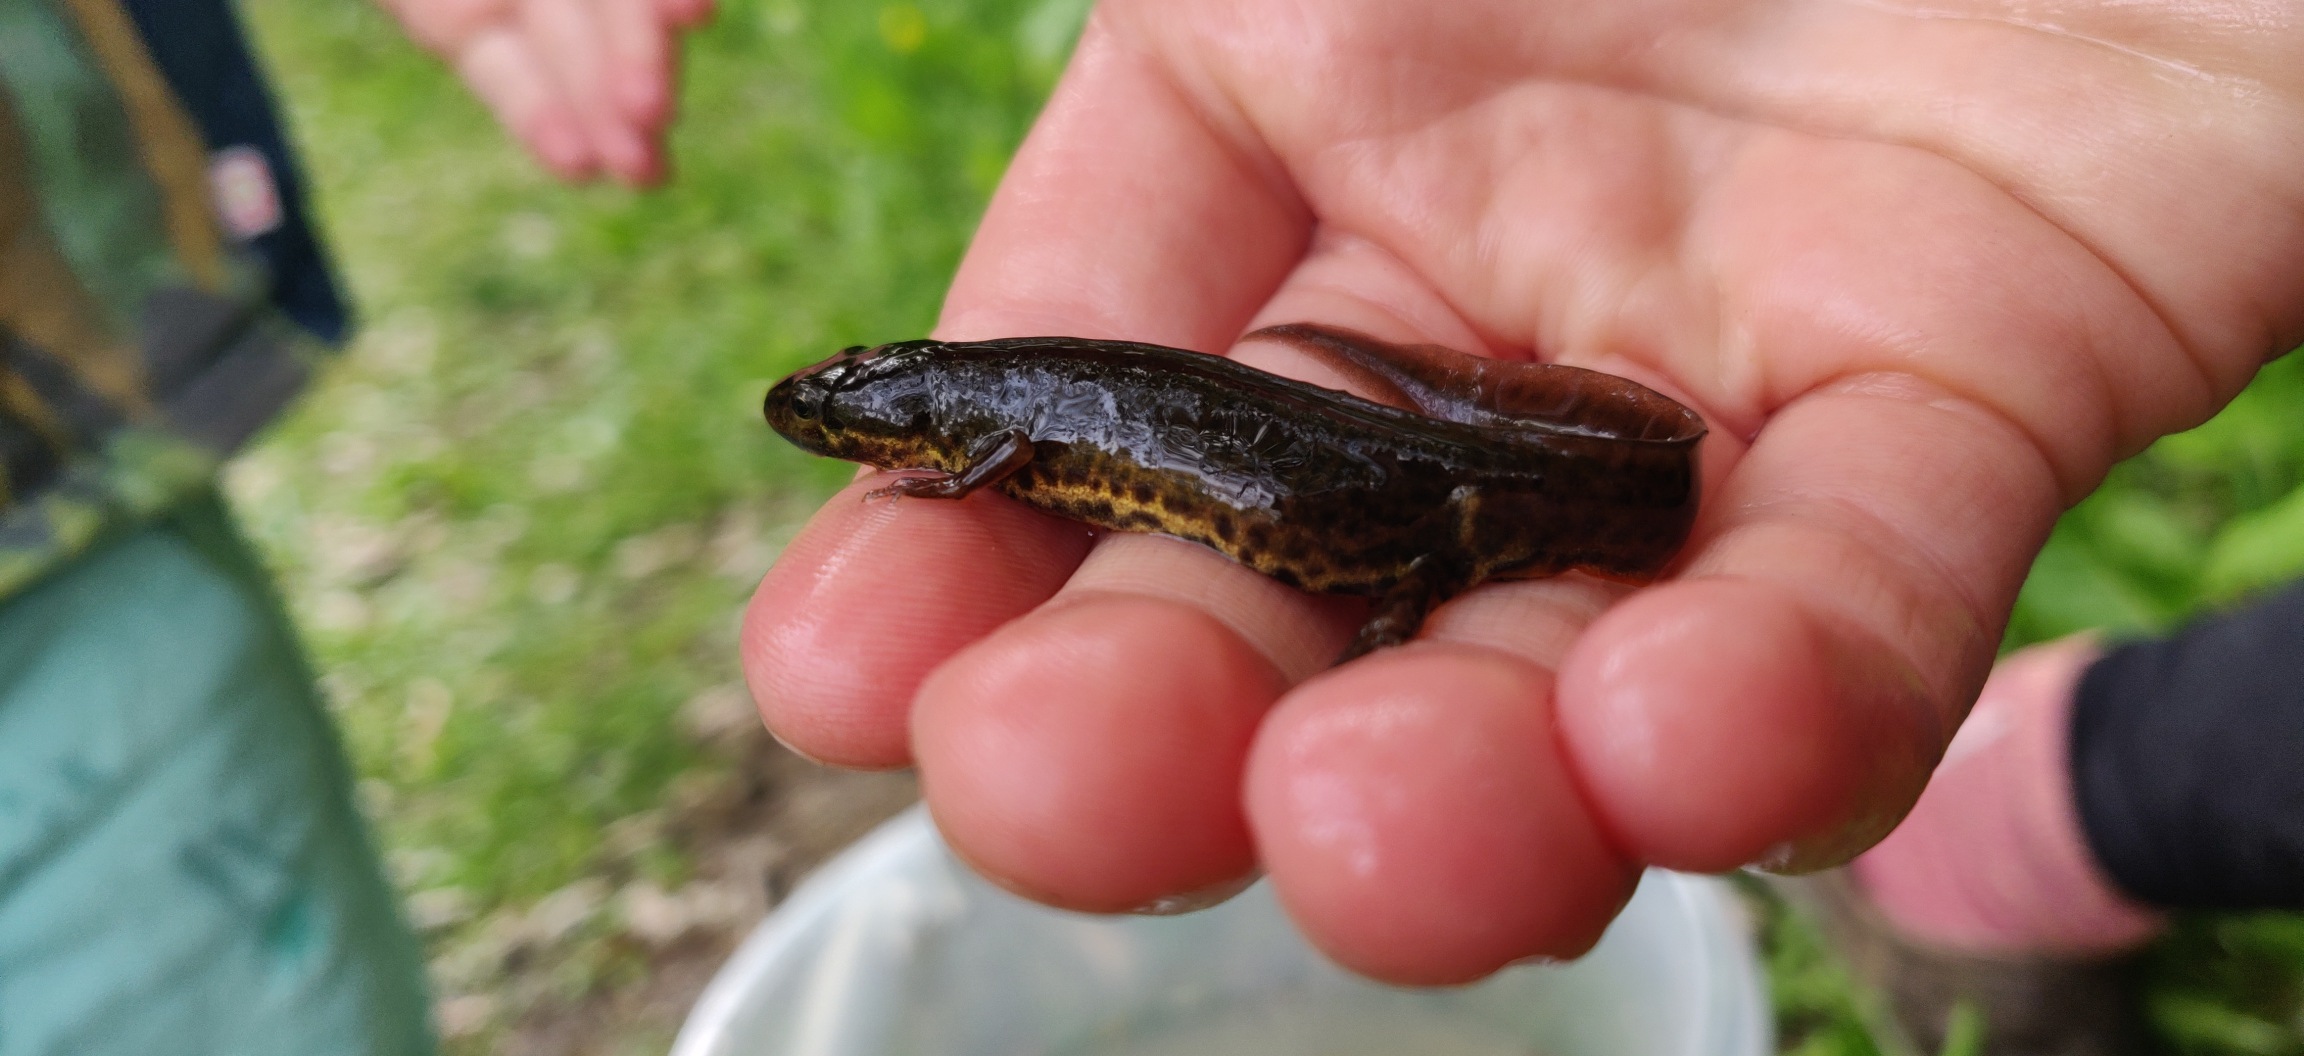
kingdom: Animalia
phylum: Chordata
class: Amphibia
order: Caudata
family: Salamandridae
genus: Lissotriton
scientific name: Lissotriton vulgaris
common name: Lille vandsalamander
